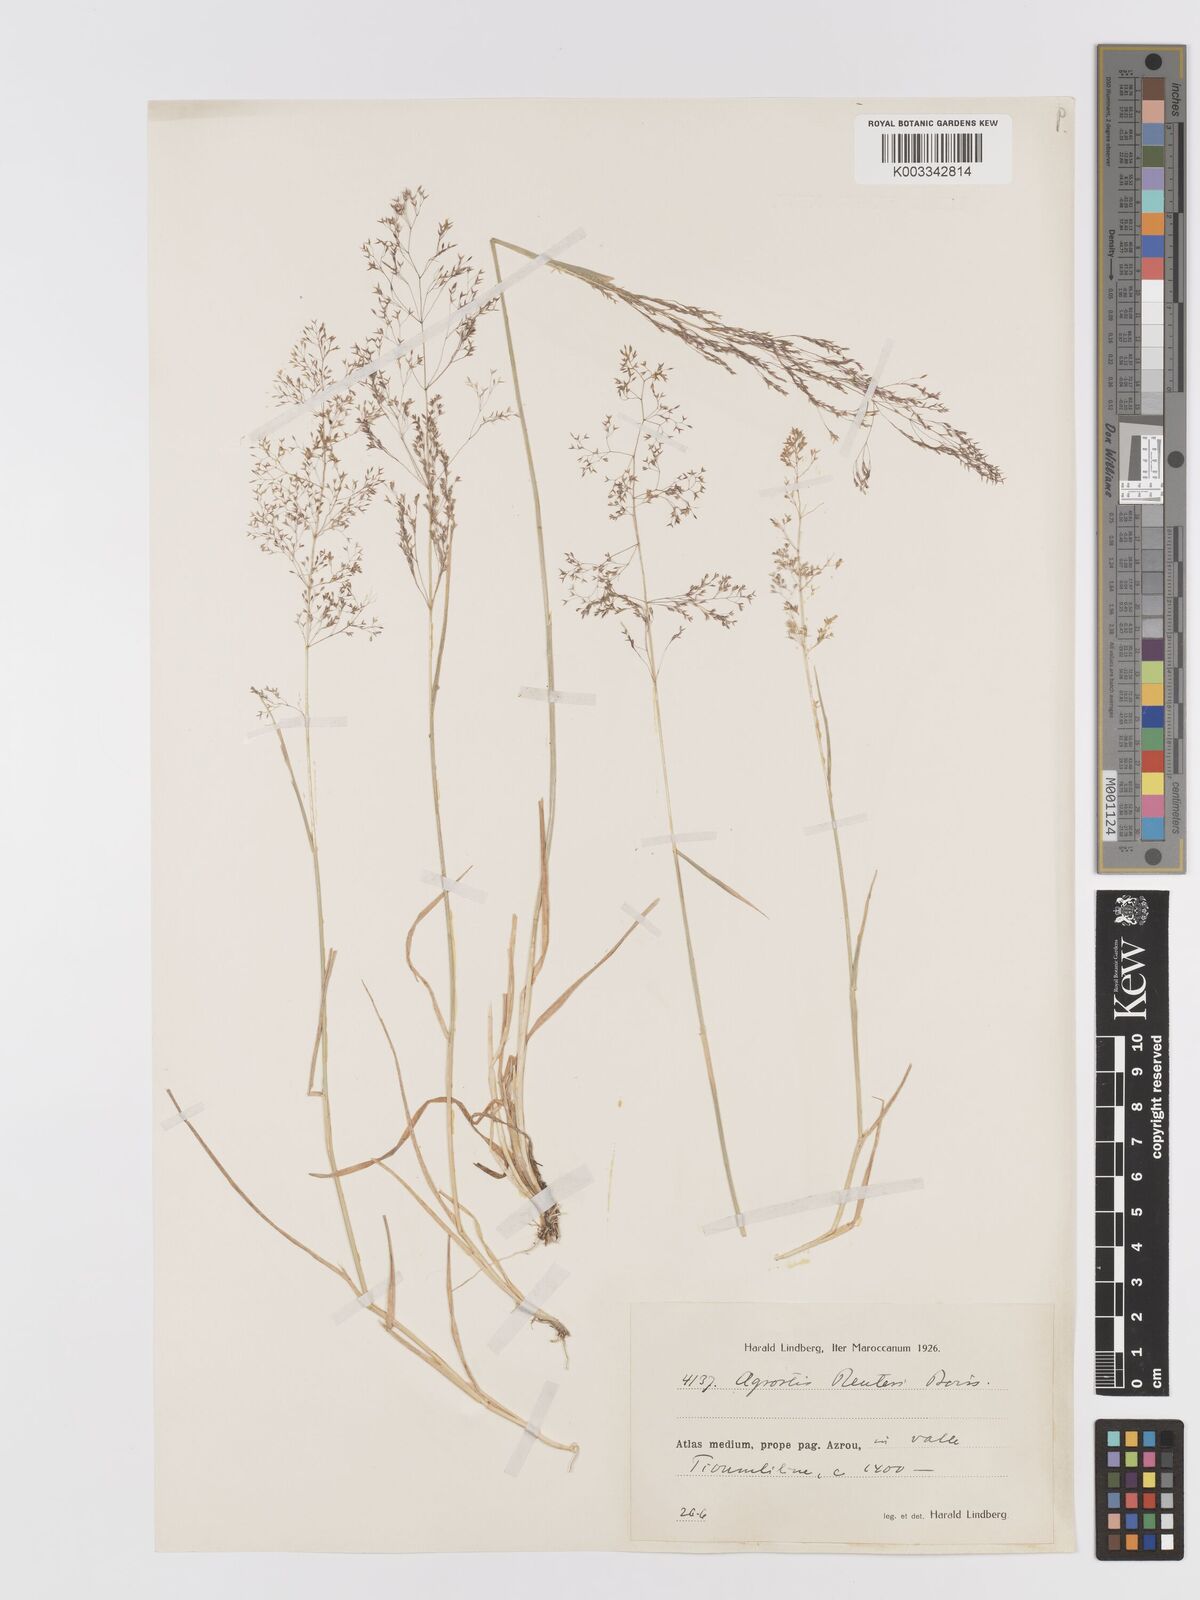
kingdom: Plantae
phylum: Tracheophyta
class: Liliopsida
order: Poales
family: Poaceae
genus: Agrostis
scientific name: Agrostis reuteri
